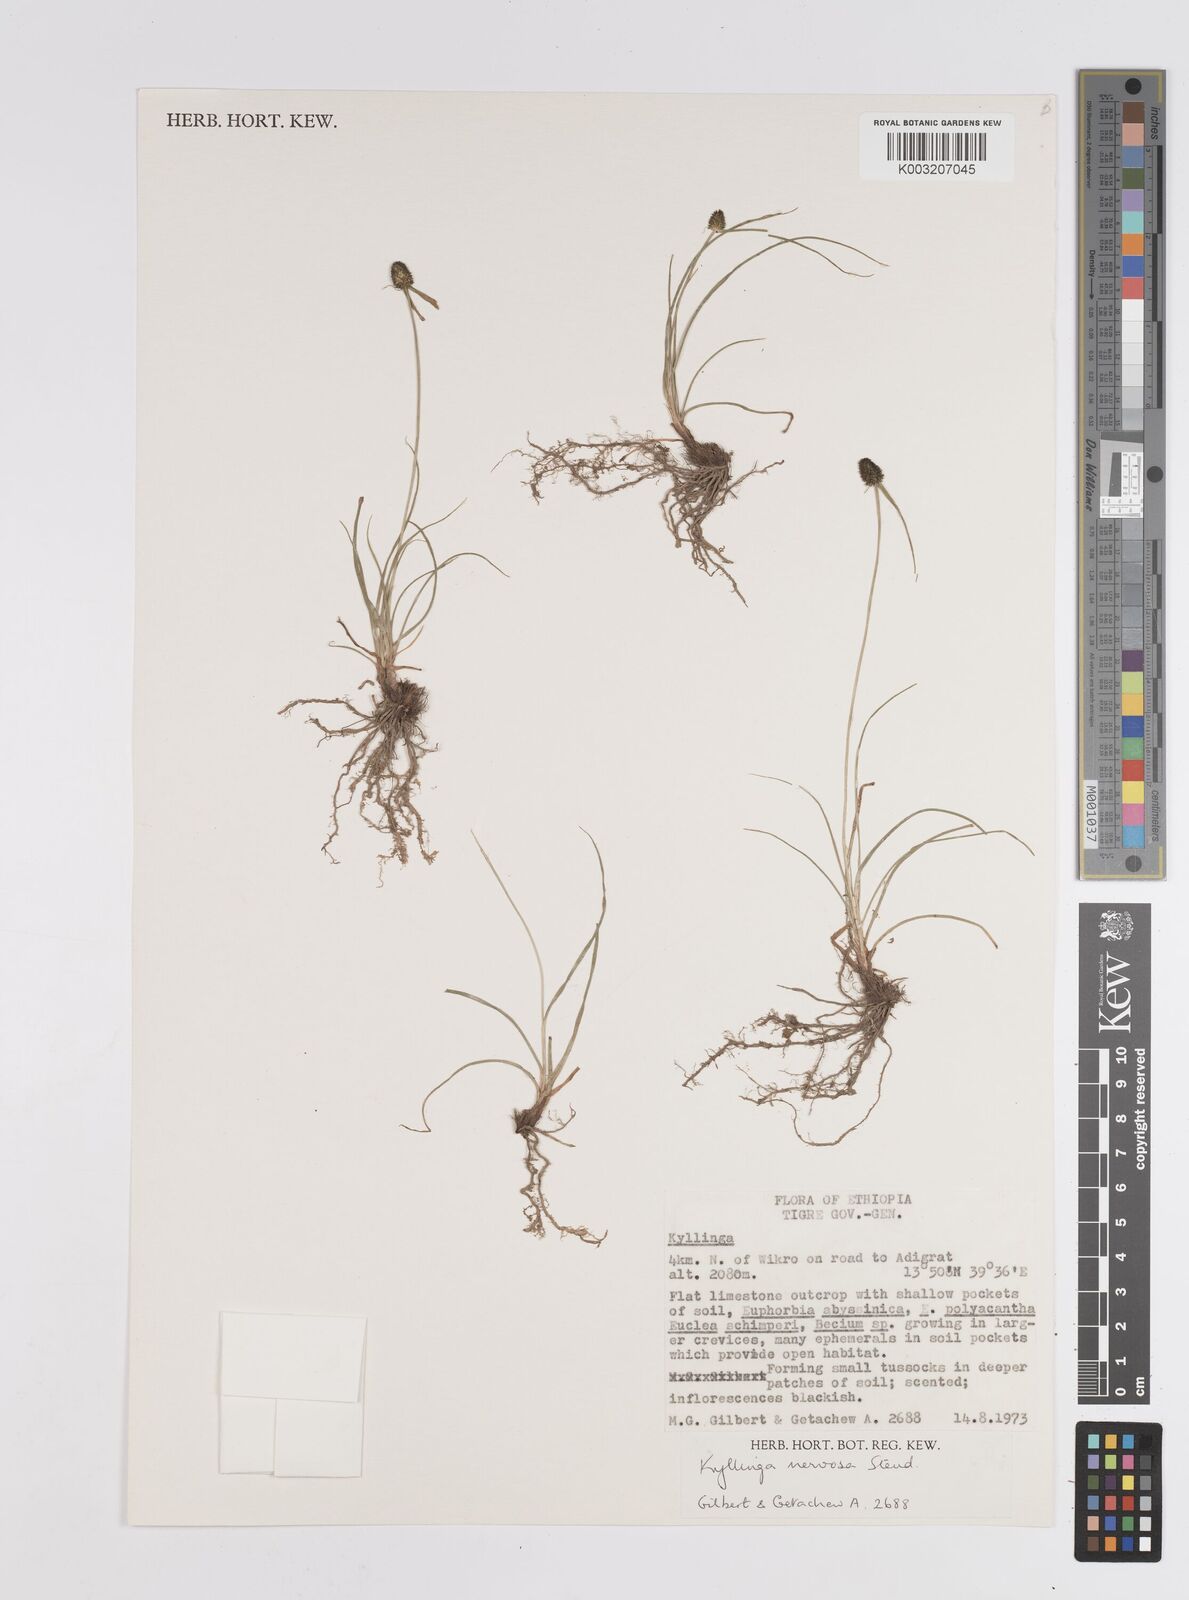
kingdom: Plantae
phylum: Tracheophyta
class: Liliopsida
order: Poales
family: Cyperaceae
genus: Cyperus
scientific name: Cyperus costatus
